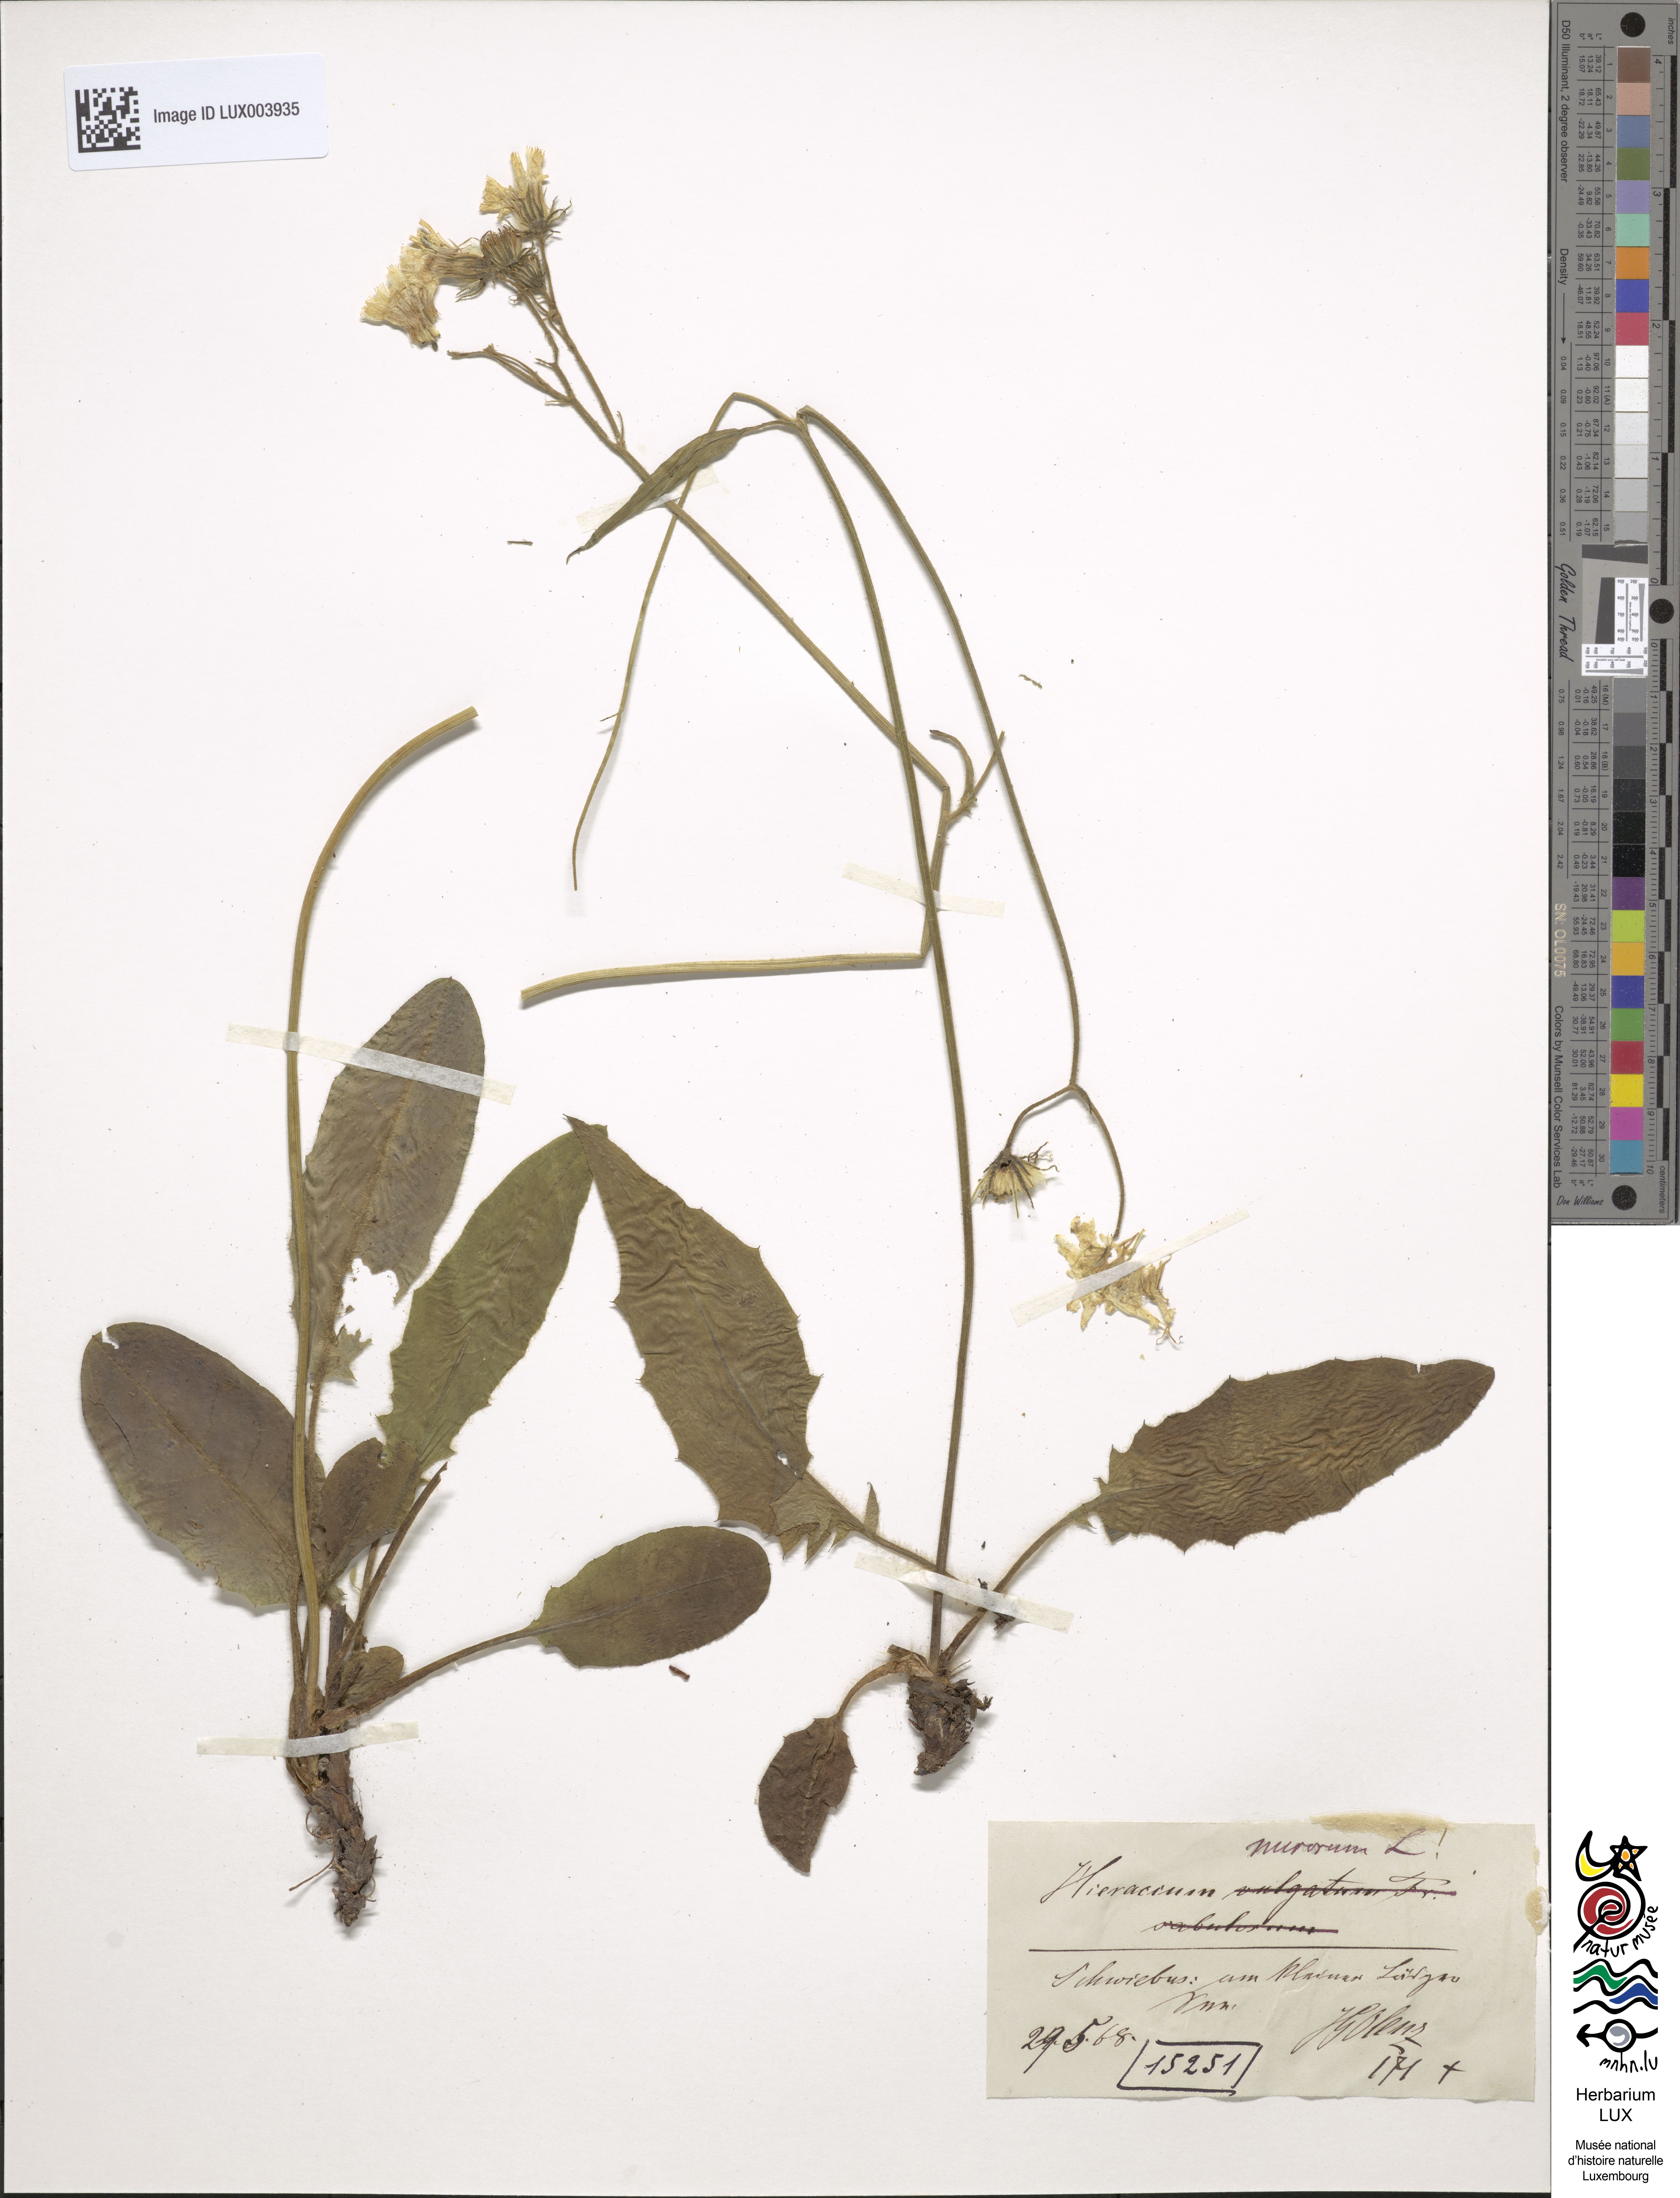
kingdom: Plantae
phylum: Tracheophyta
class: Magnoliopsida
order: Asterales
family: Asteraceae
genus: Hieracium
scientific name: Hieracium murorum
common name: Wall hawkweed
